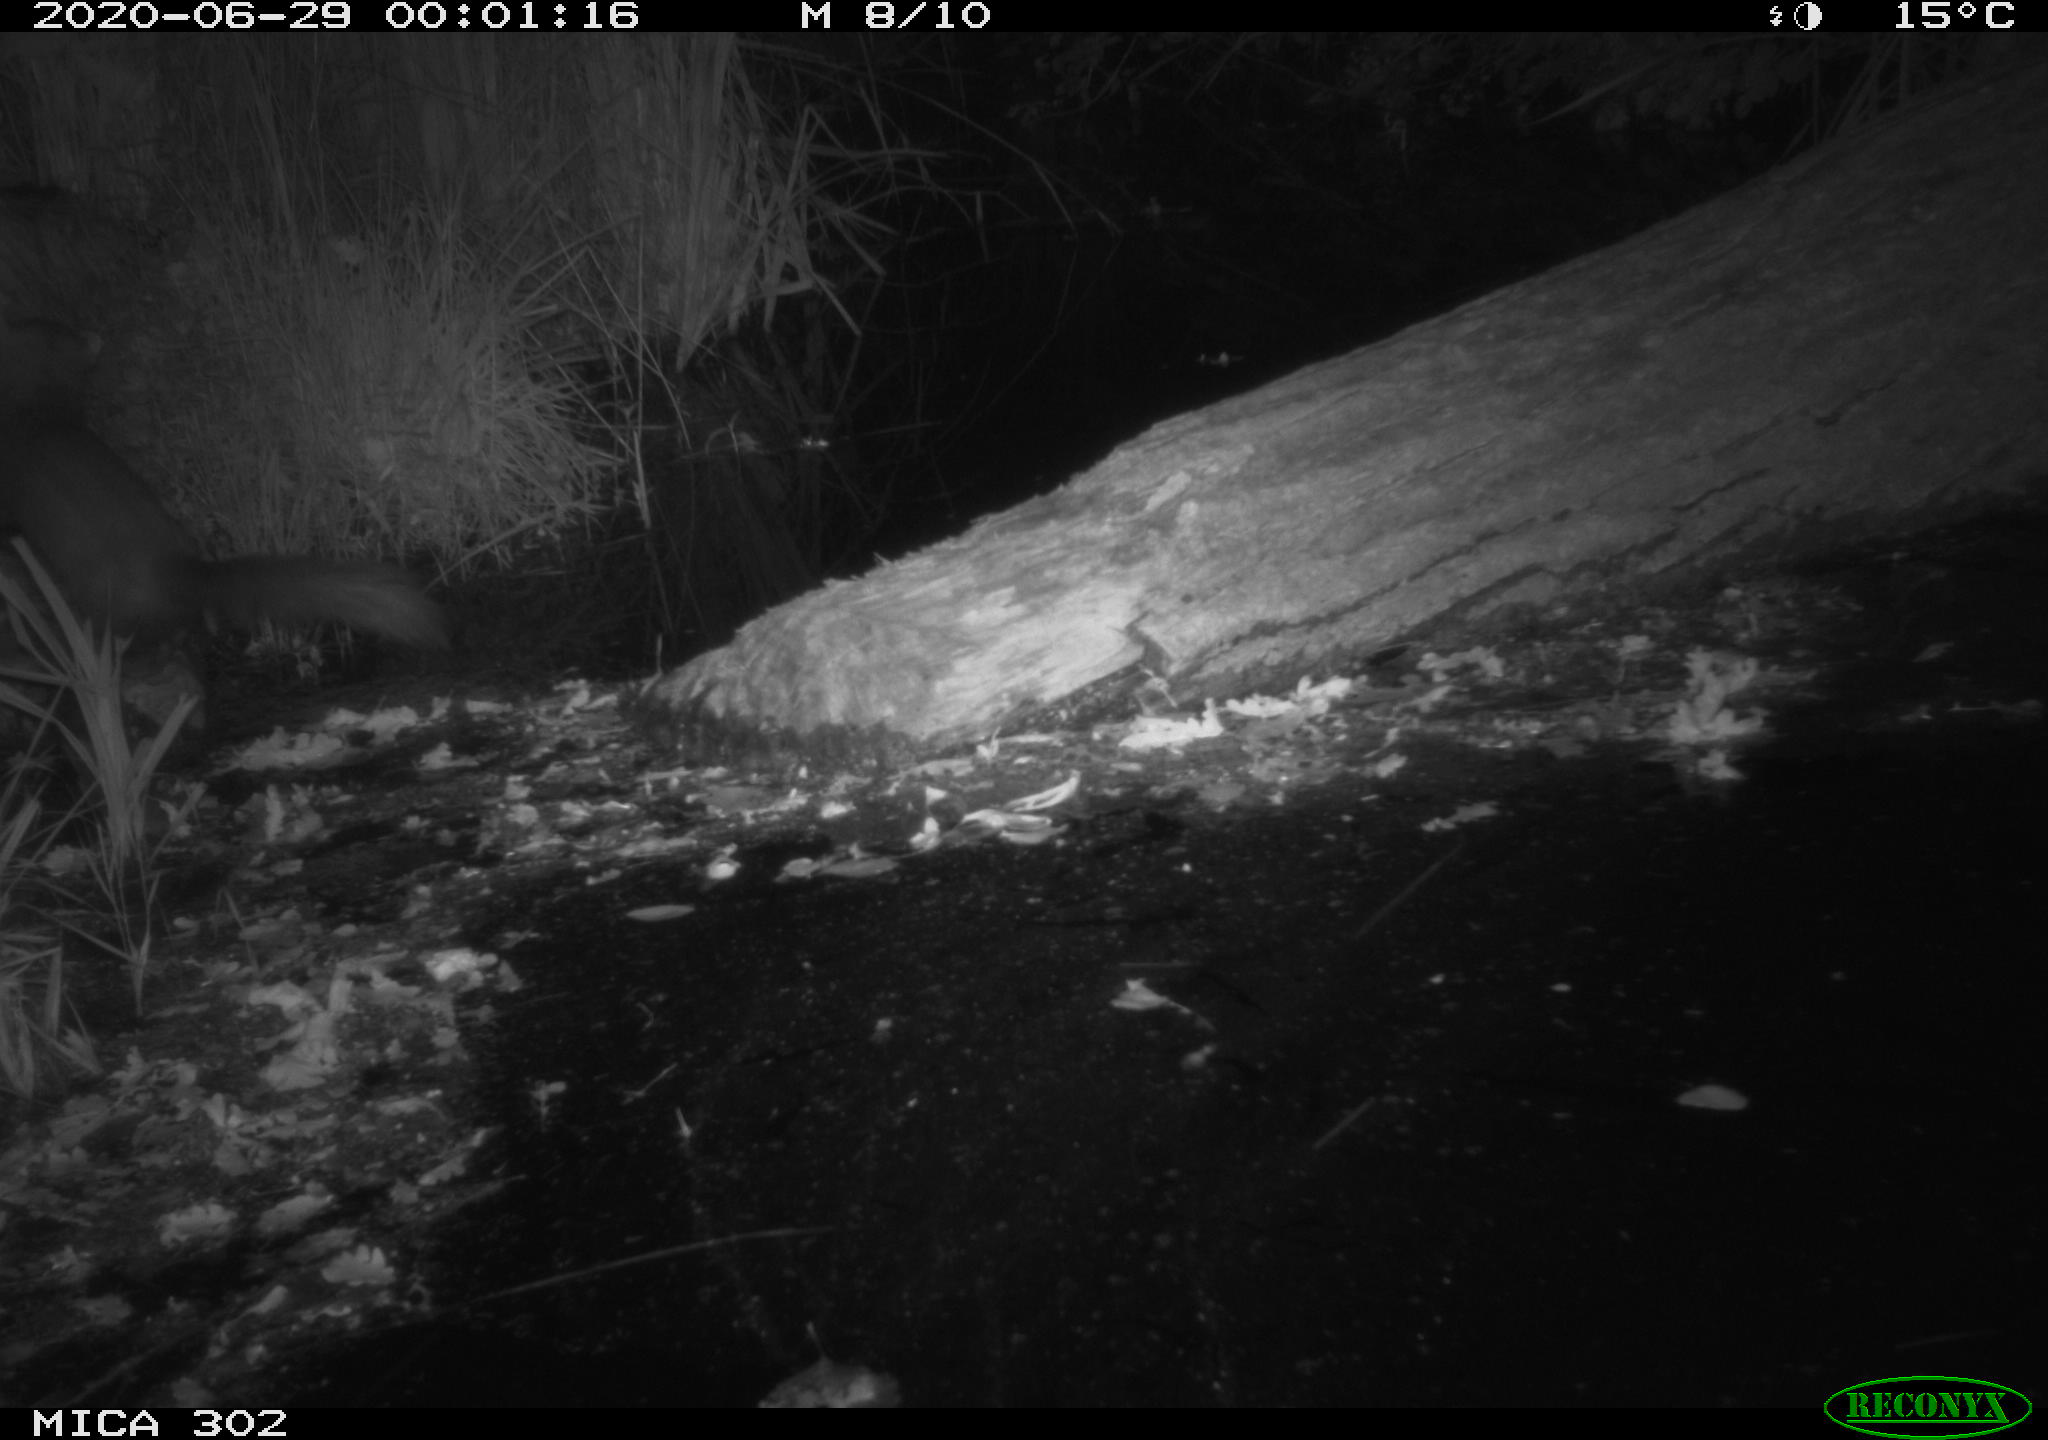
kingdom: Animalia
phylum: Chordata
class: Mammalia
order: Carnivora
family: Mustelidae
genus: Martes
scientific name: Martes foina
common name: Beech marten
